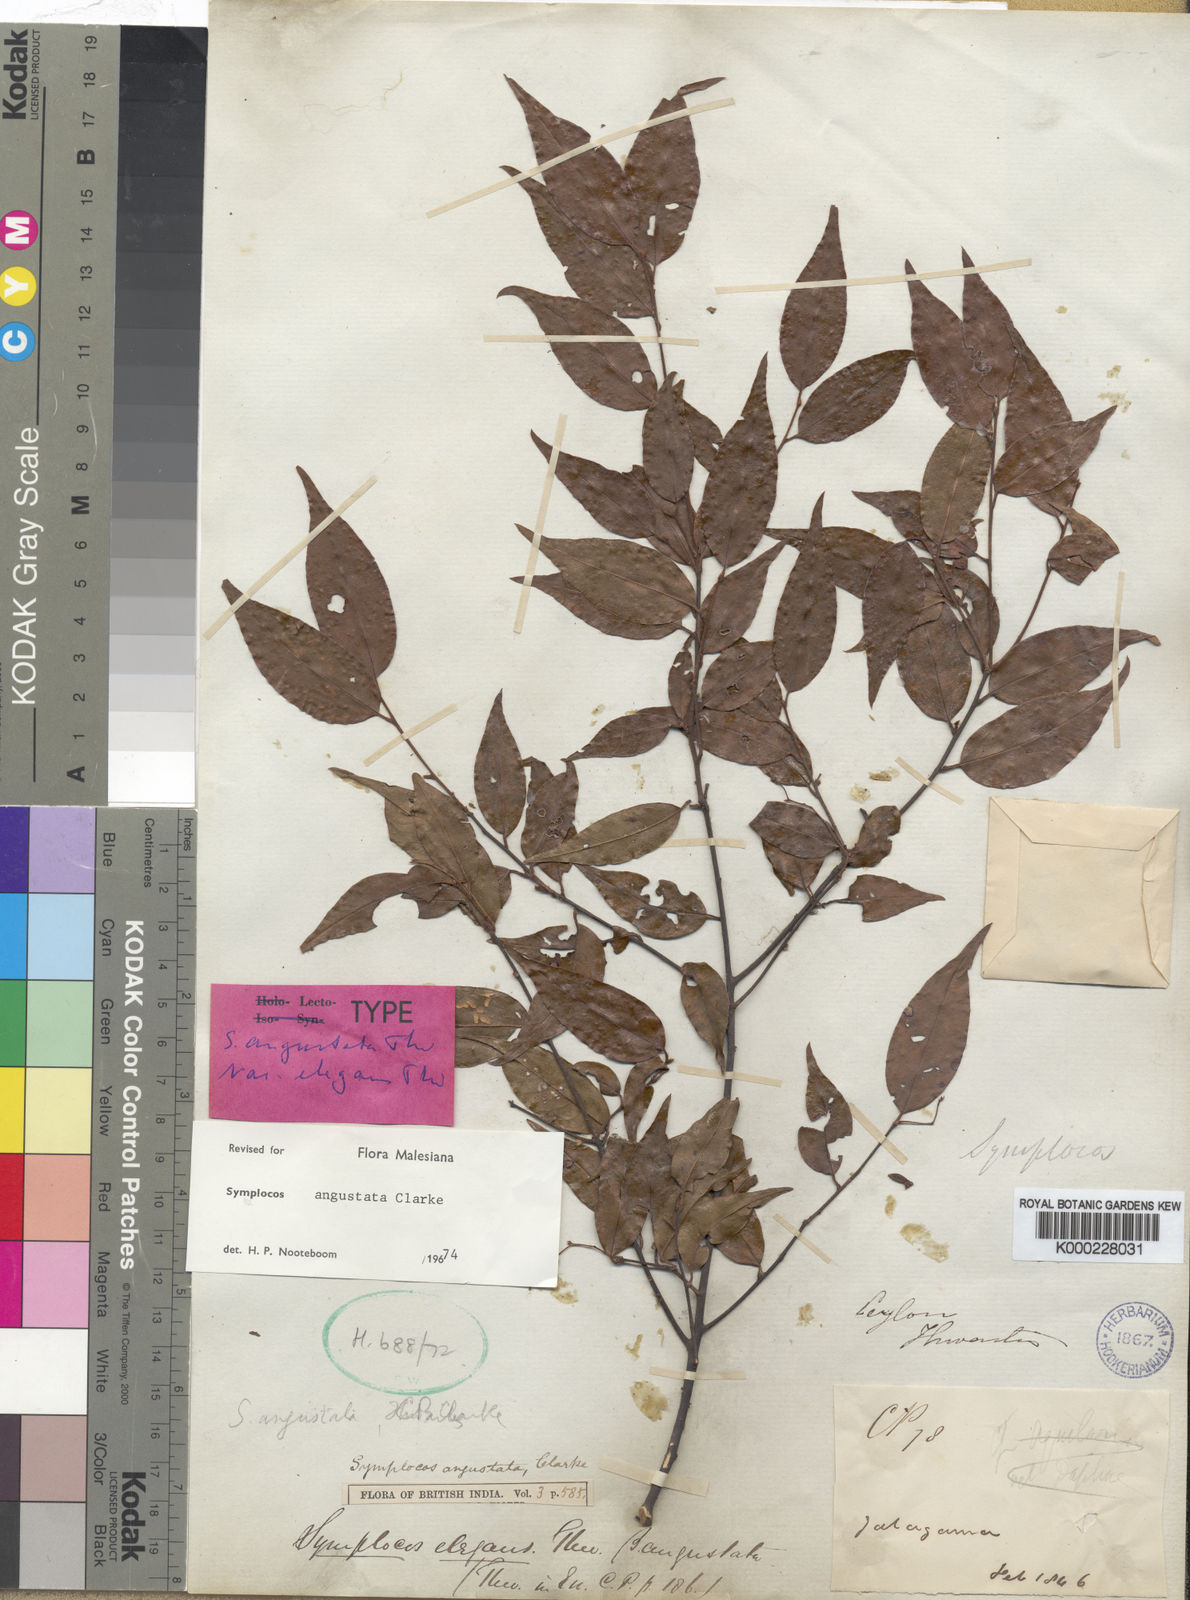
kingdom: Plantae
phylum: Tracheophyta
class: Magnoliopsida
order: Ericales
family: Symplocaceae
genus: Symplocos
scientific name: Symplocos
